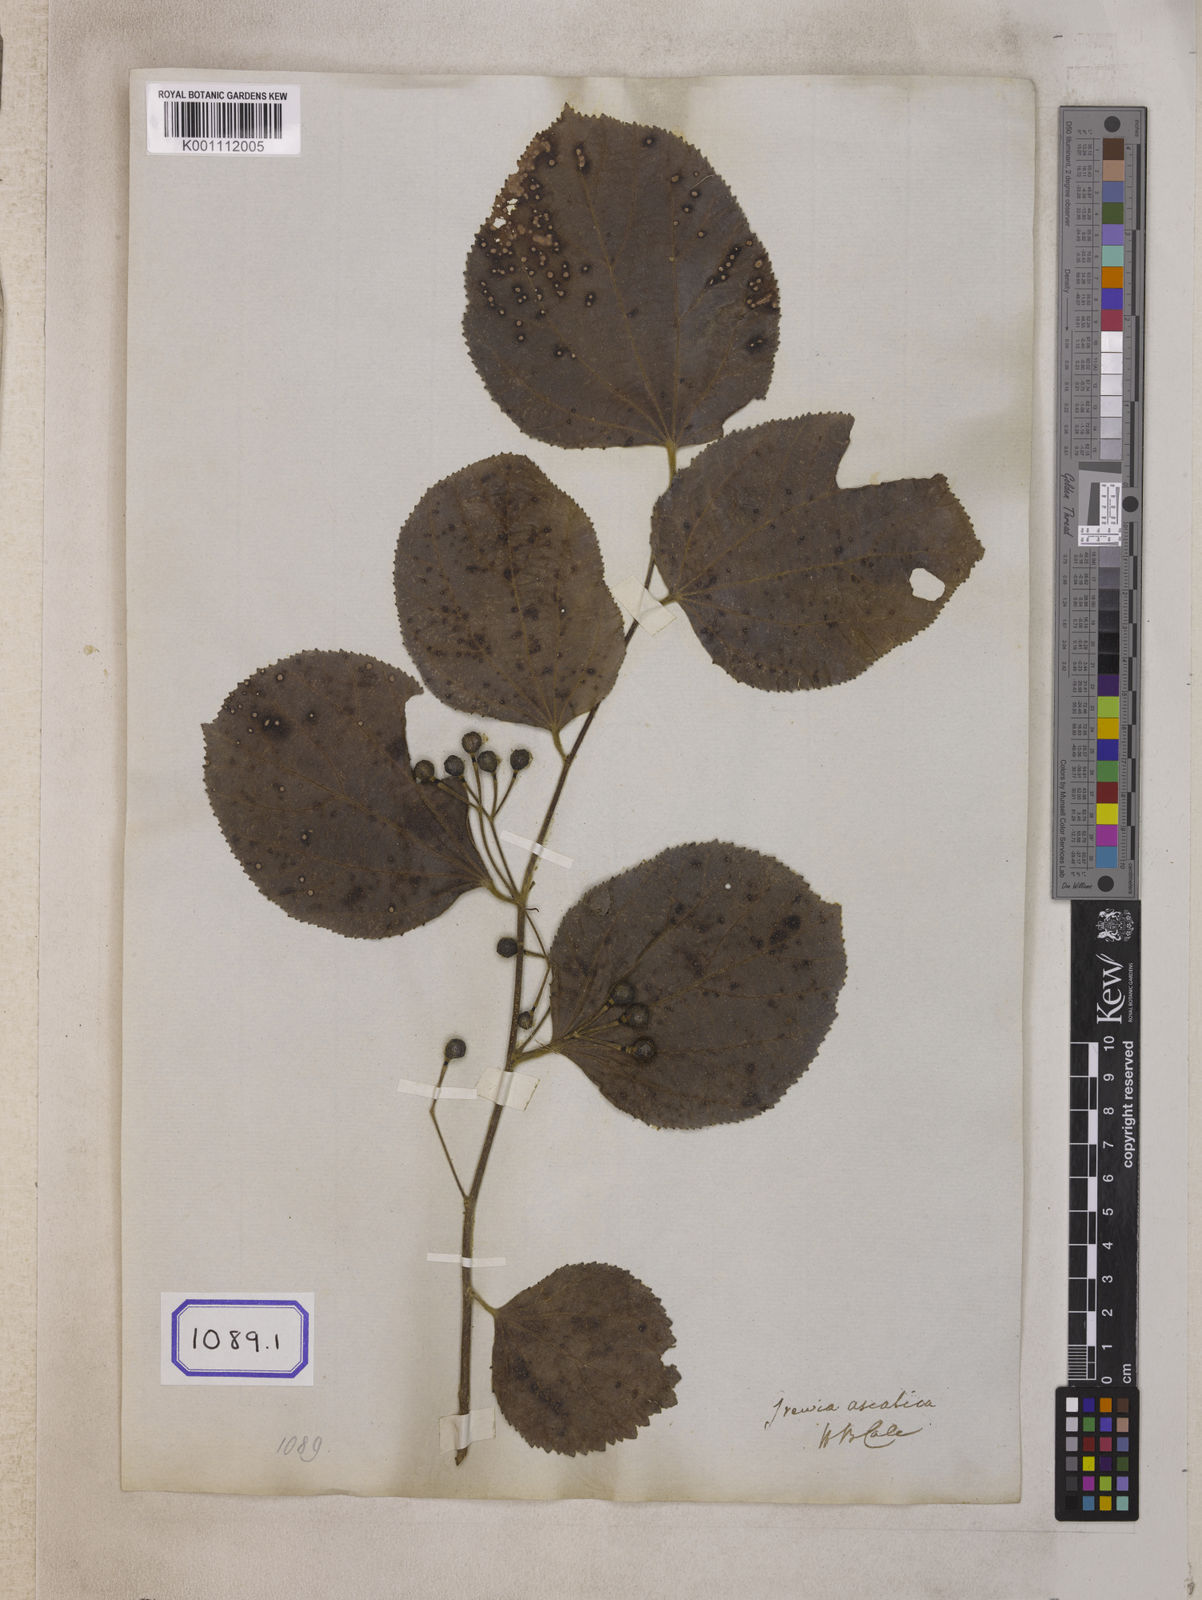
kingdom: Plantae
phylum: Tracheophyta
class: Magnoliopsida
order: Malvales
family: Malvaceae
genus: Grewia
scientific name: Grewia asiatica
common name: Phalsa
